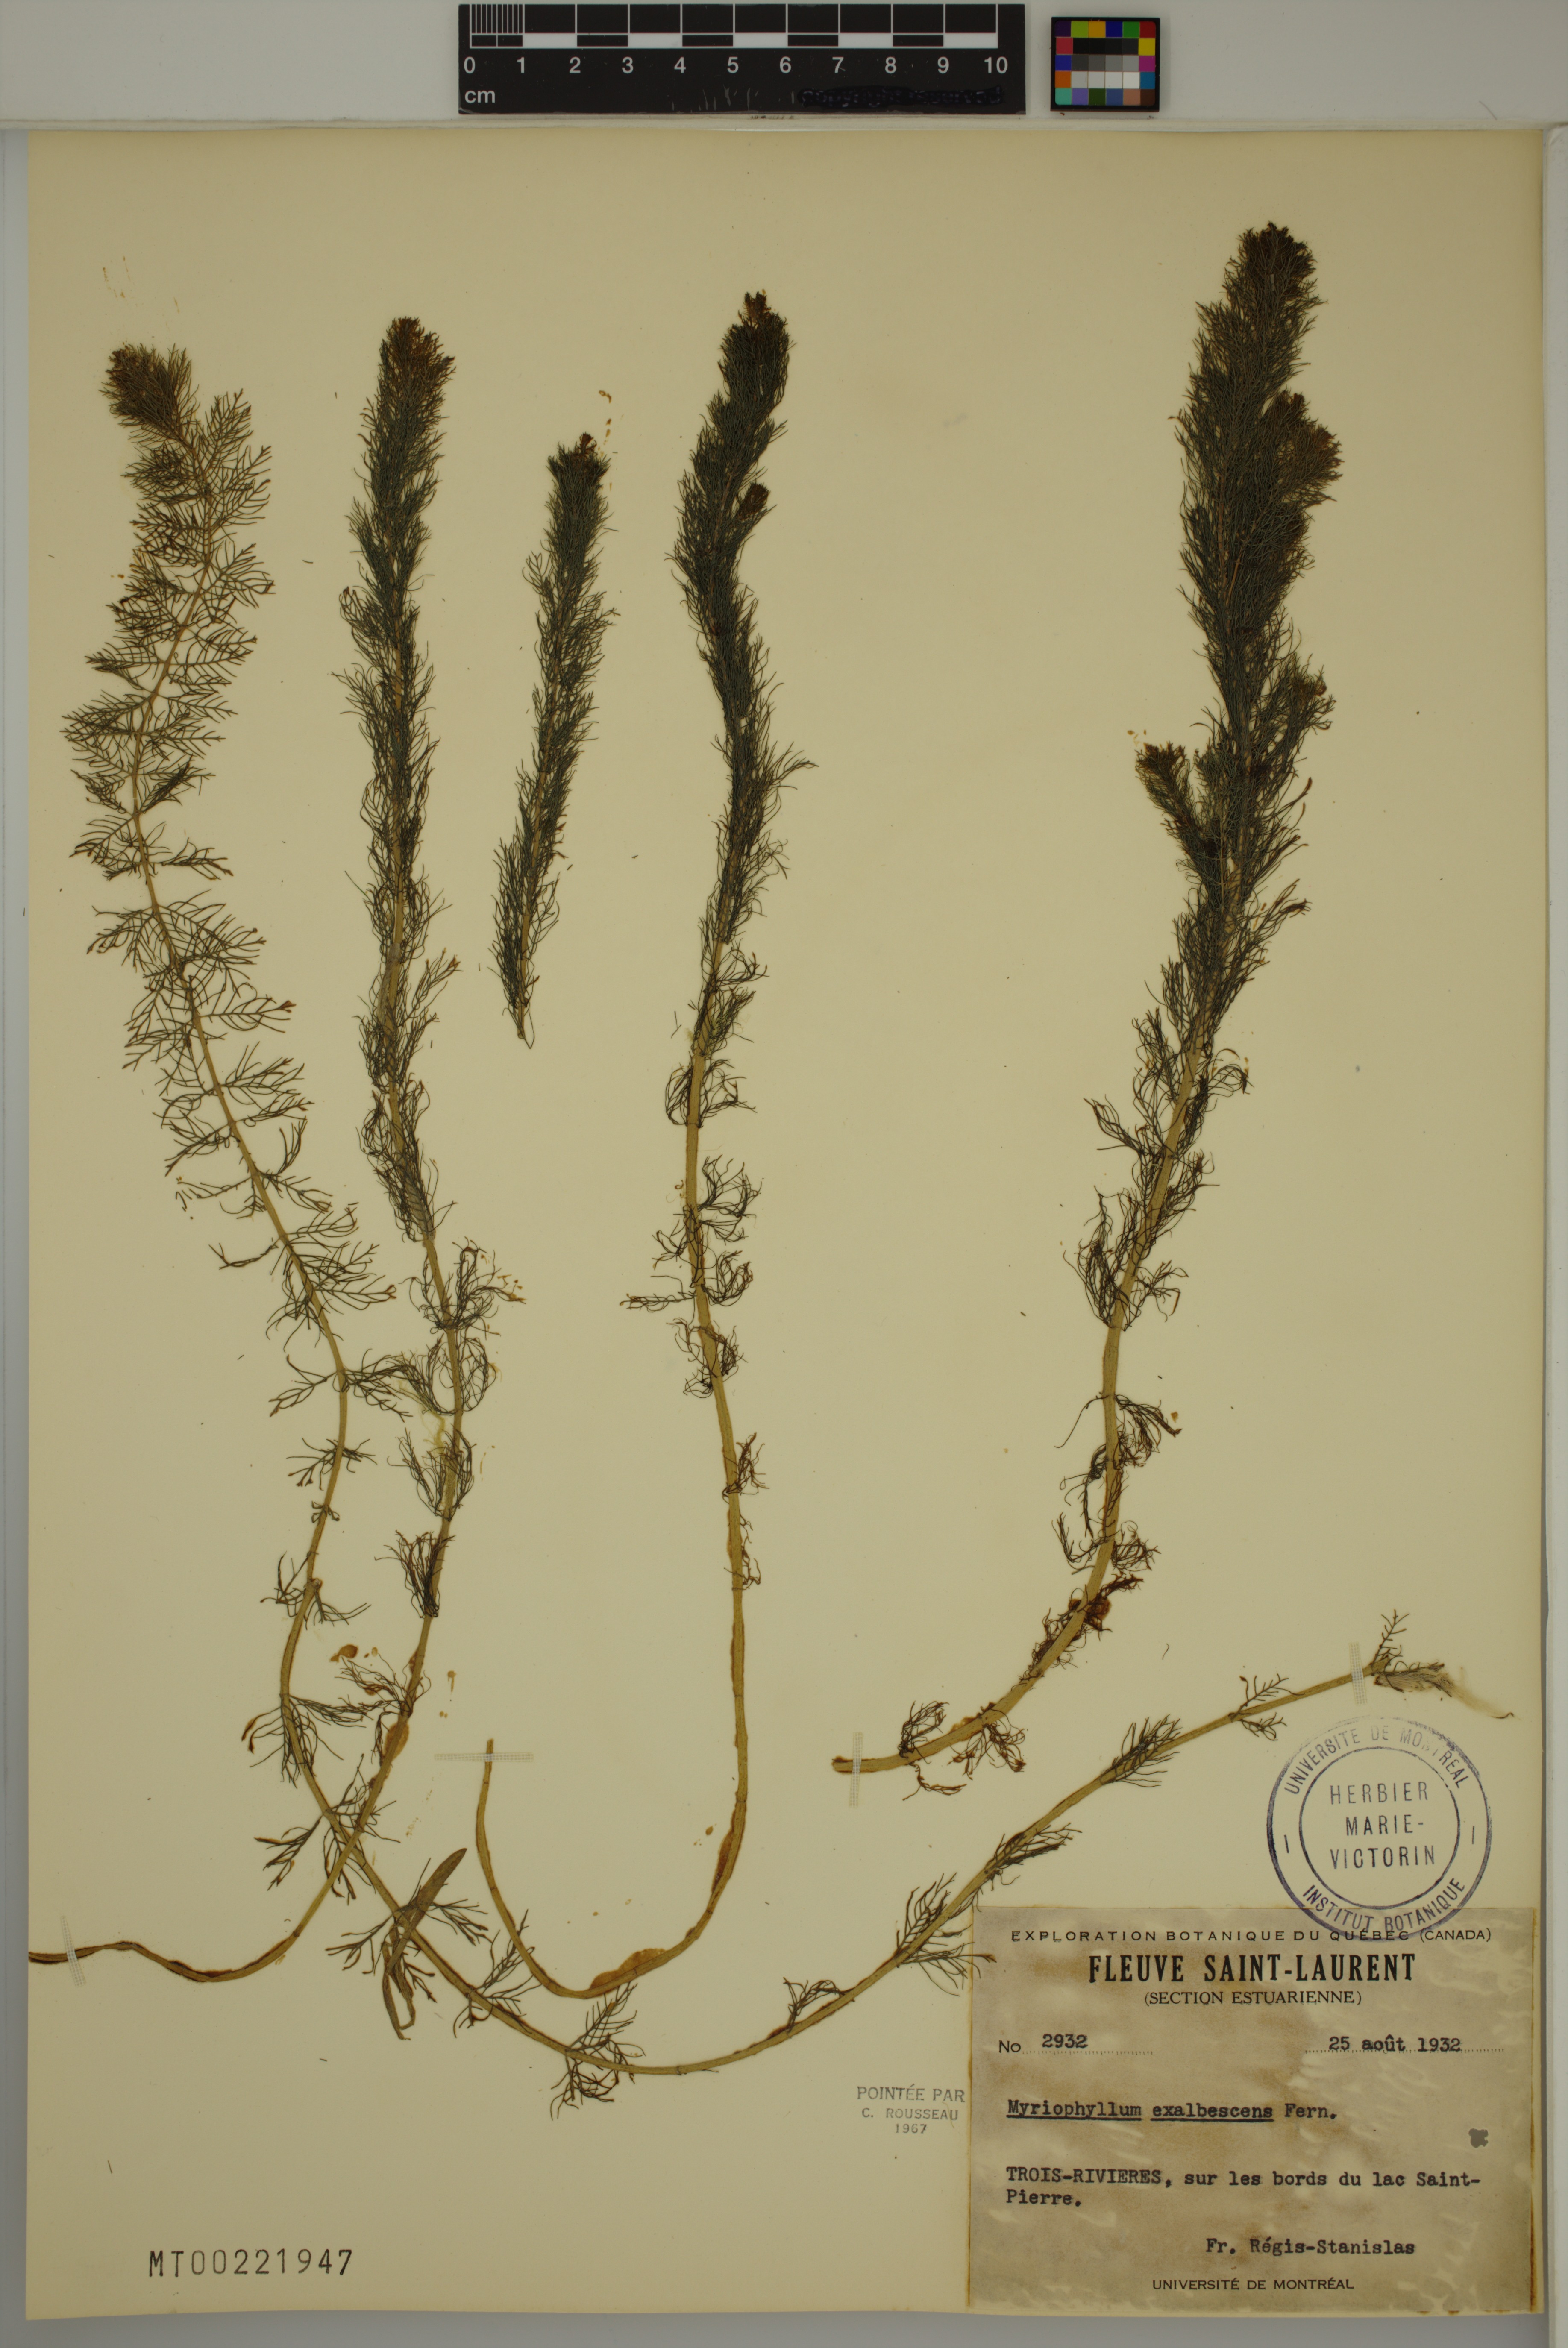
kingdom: Plantae
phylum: Tracheophyta
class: Magnoliopsida
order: Saxifragales
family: Haloragaceae
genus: Myriophyllum
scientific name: Myriophyllum sibiricum
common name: Siberian water-milfoil
